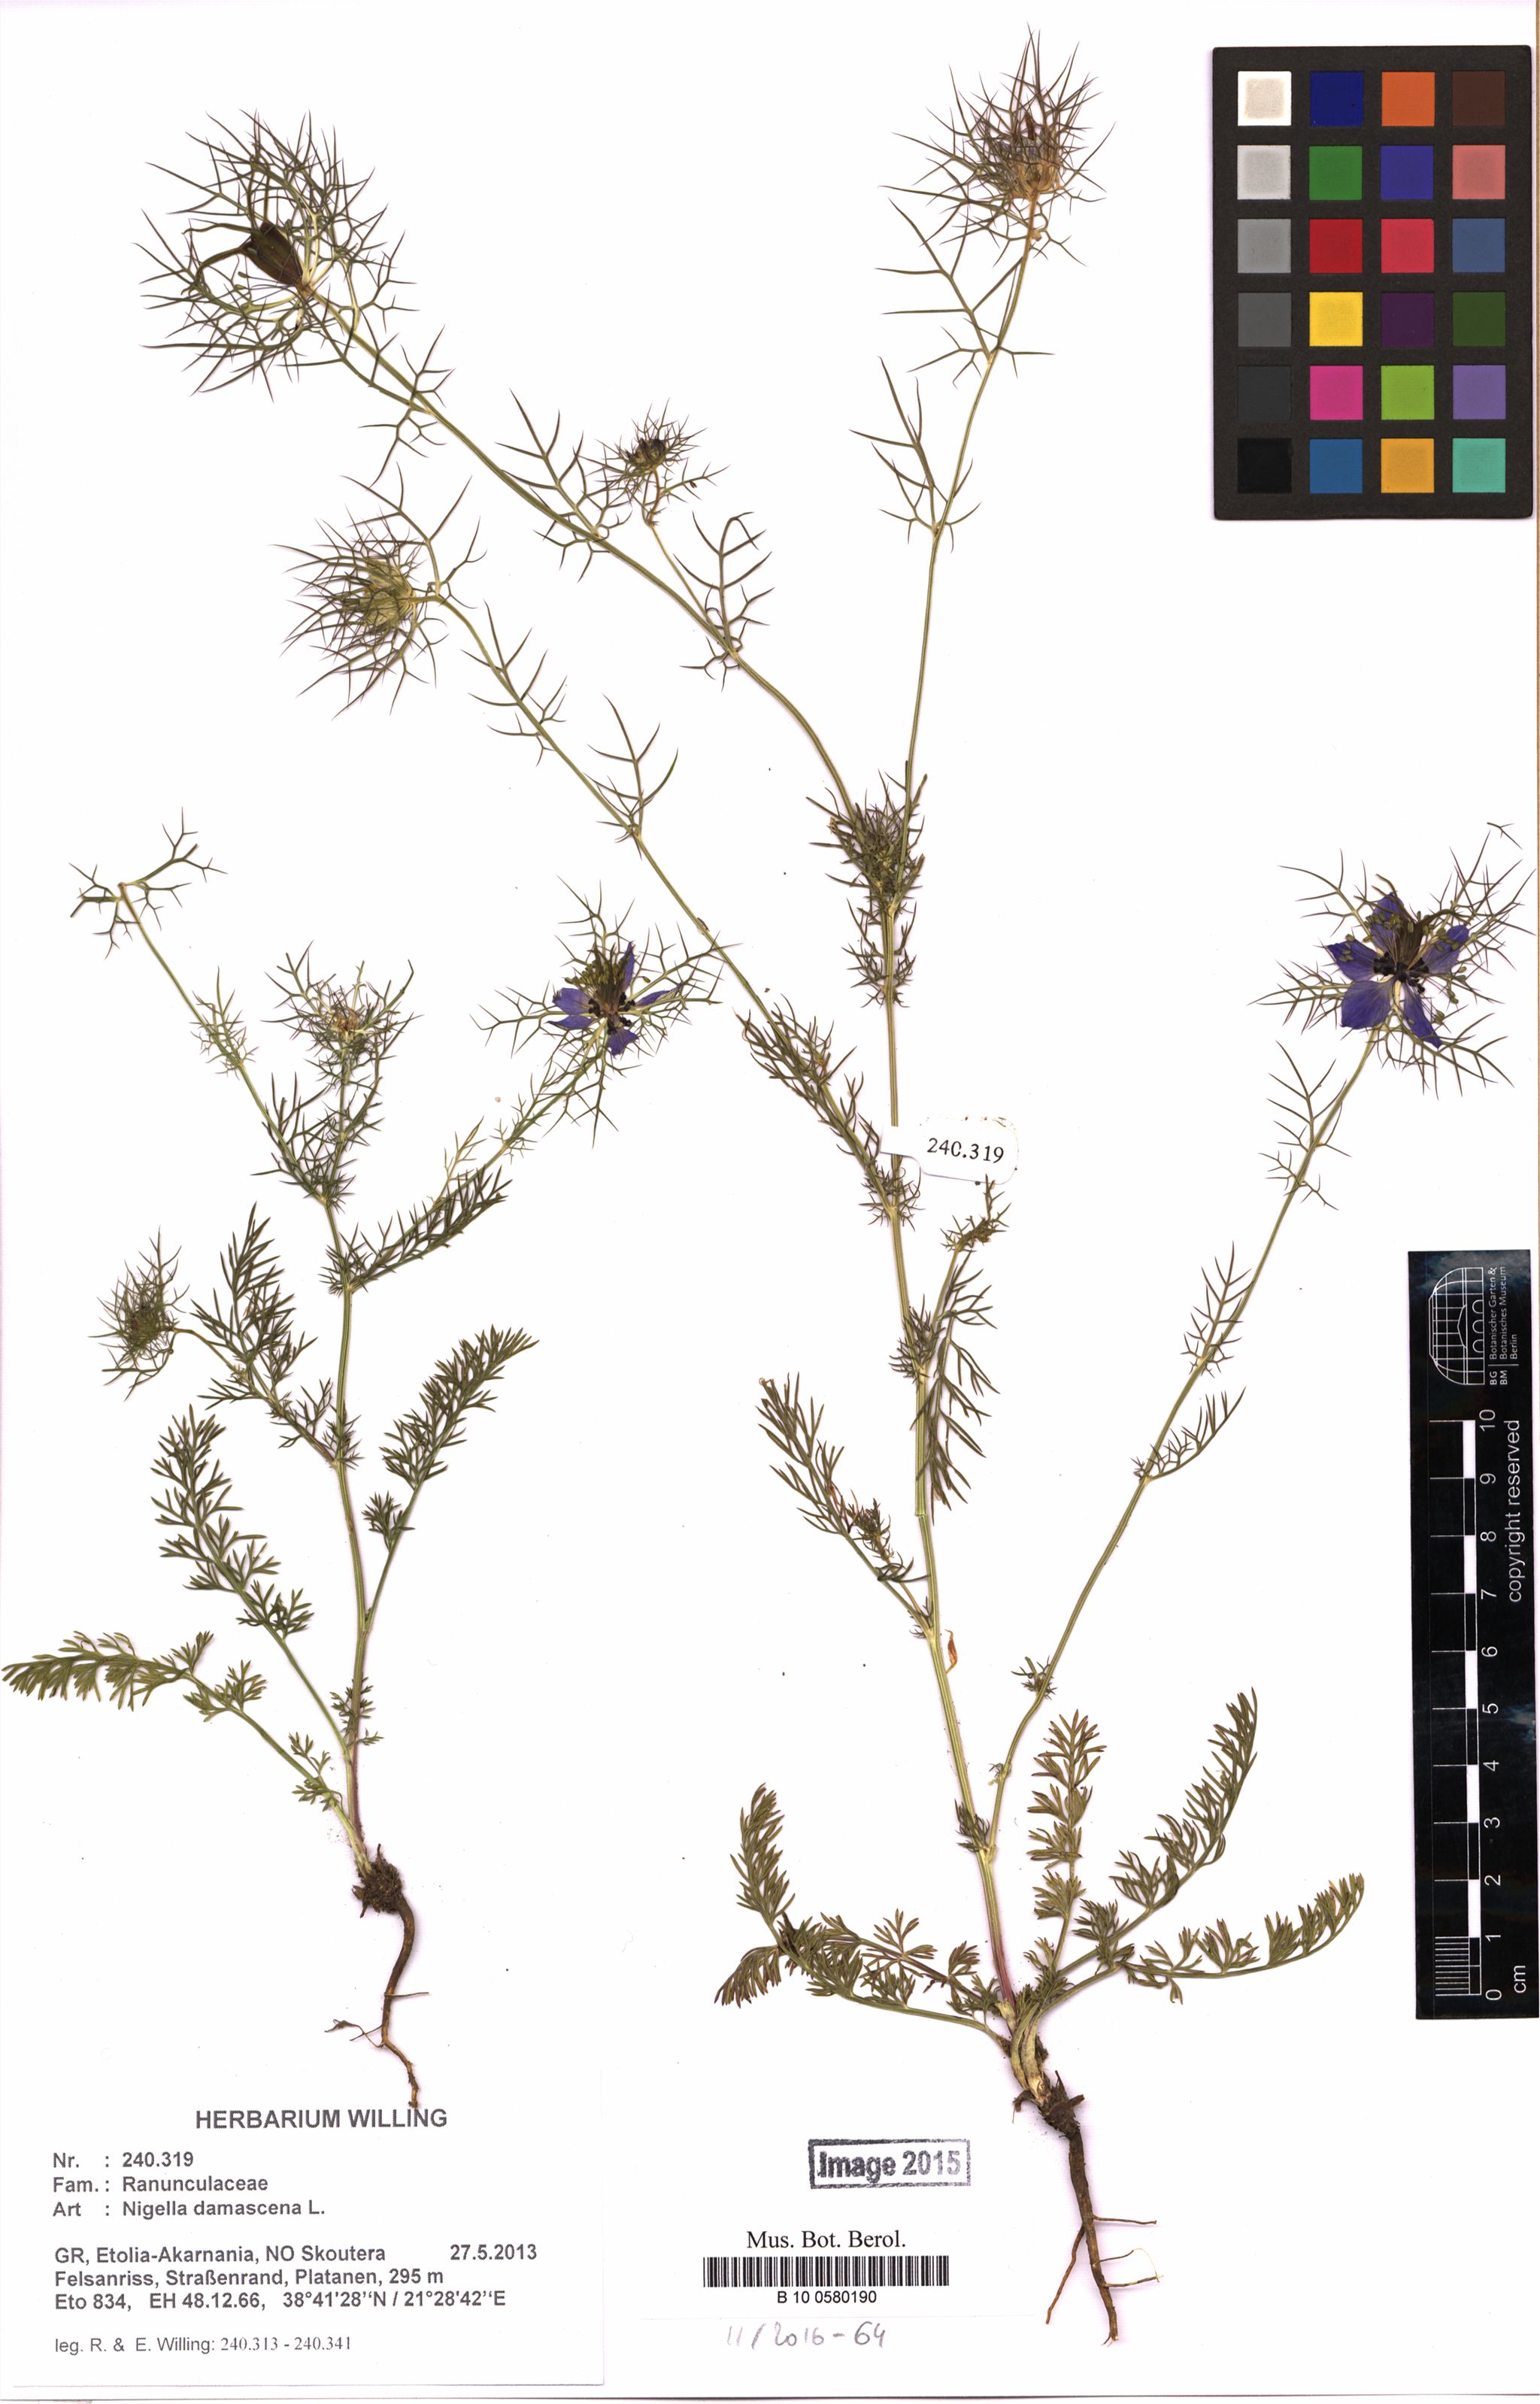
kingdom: Plantae
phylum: Tracheophyta
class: Magnoliopsida
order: Ranunculales
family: Ranunculaceae
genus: Nigella
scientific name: Nigella damascena
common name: Love-in-a-mist
